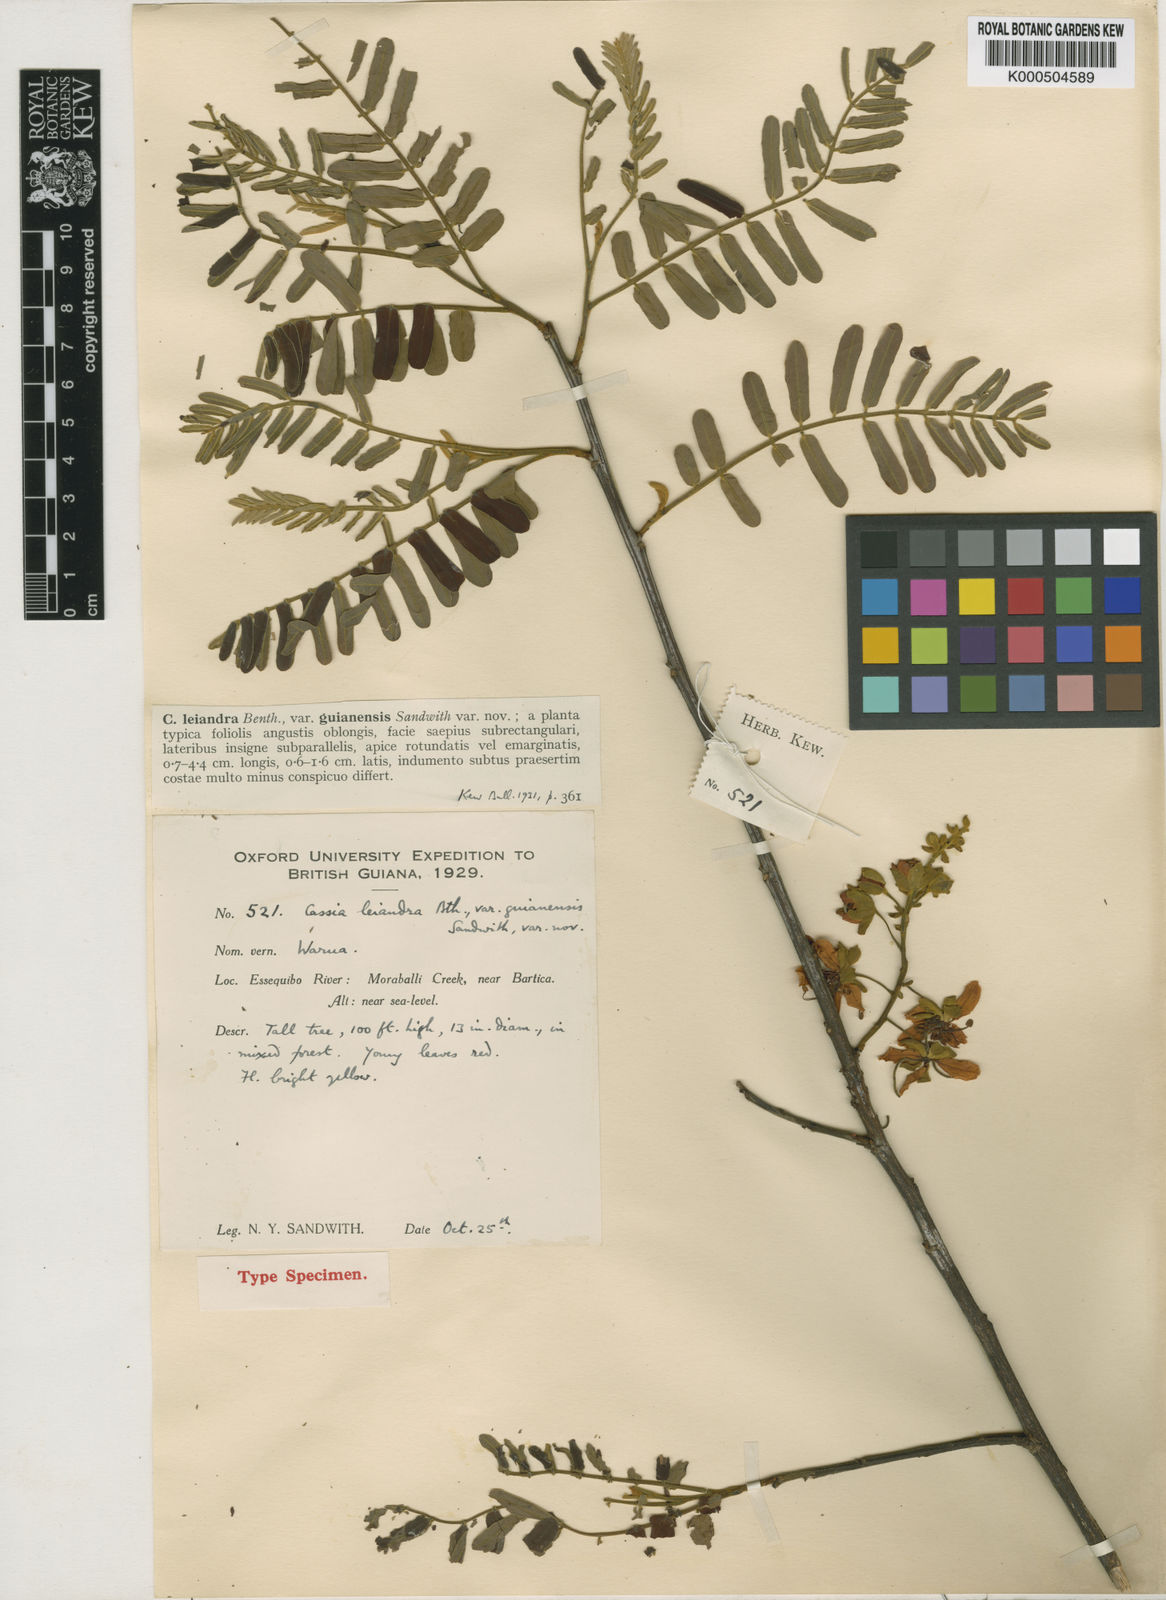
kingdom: Plantae
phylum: Tracheophyta
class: Magnoliopsida
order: Fabales
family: Fabaceae
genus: Cassia
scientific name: Cassia cowanii
